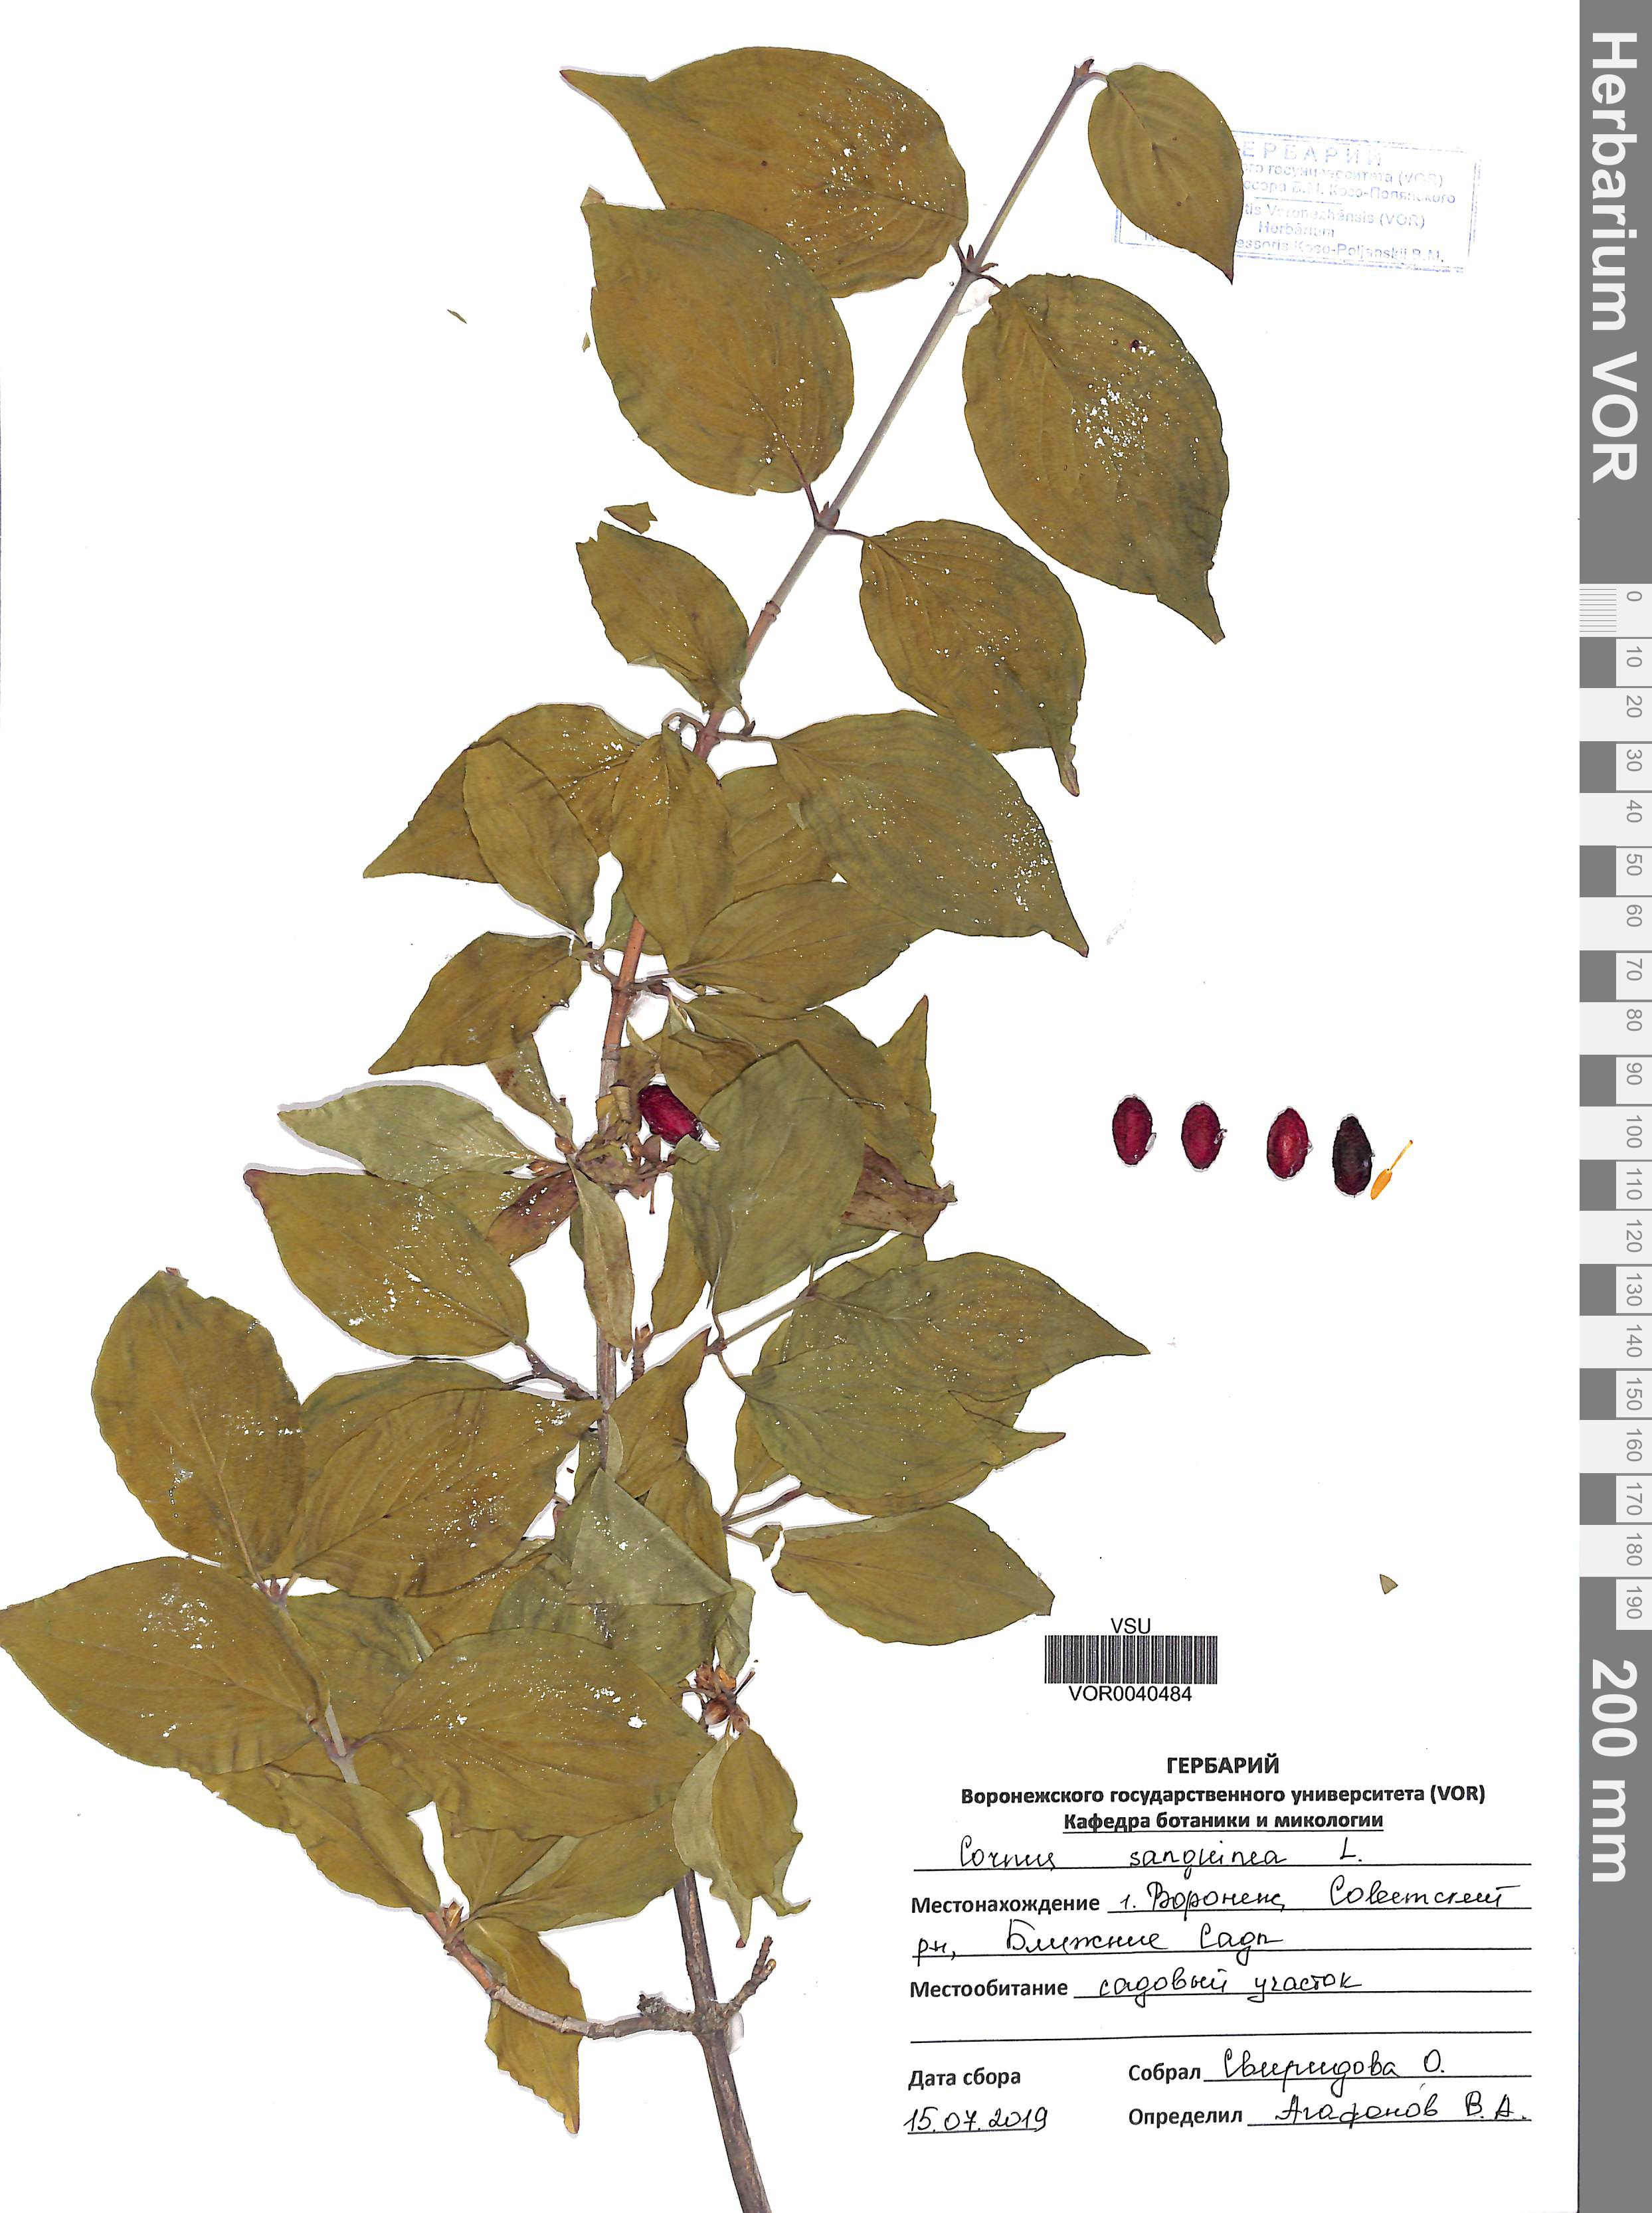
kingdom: Plantae
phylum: Tracheophyta
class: Magnoliopsida
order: Cornales
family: Cornaceae
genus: Cornus
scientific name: Cornus sanguinea
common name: Dogwood
